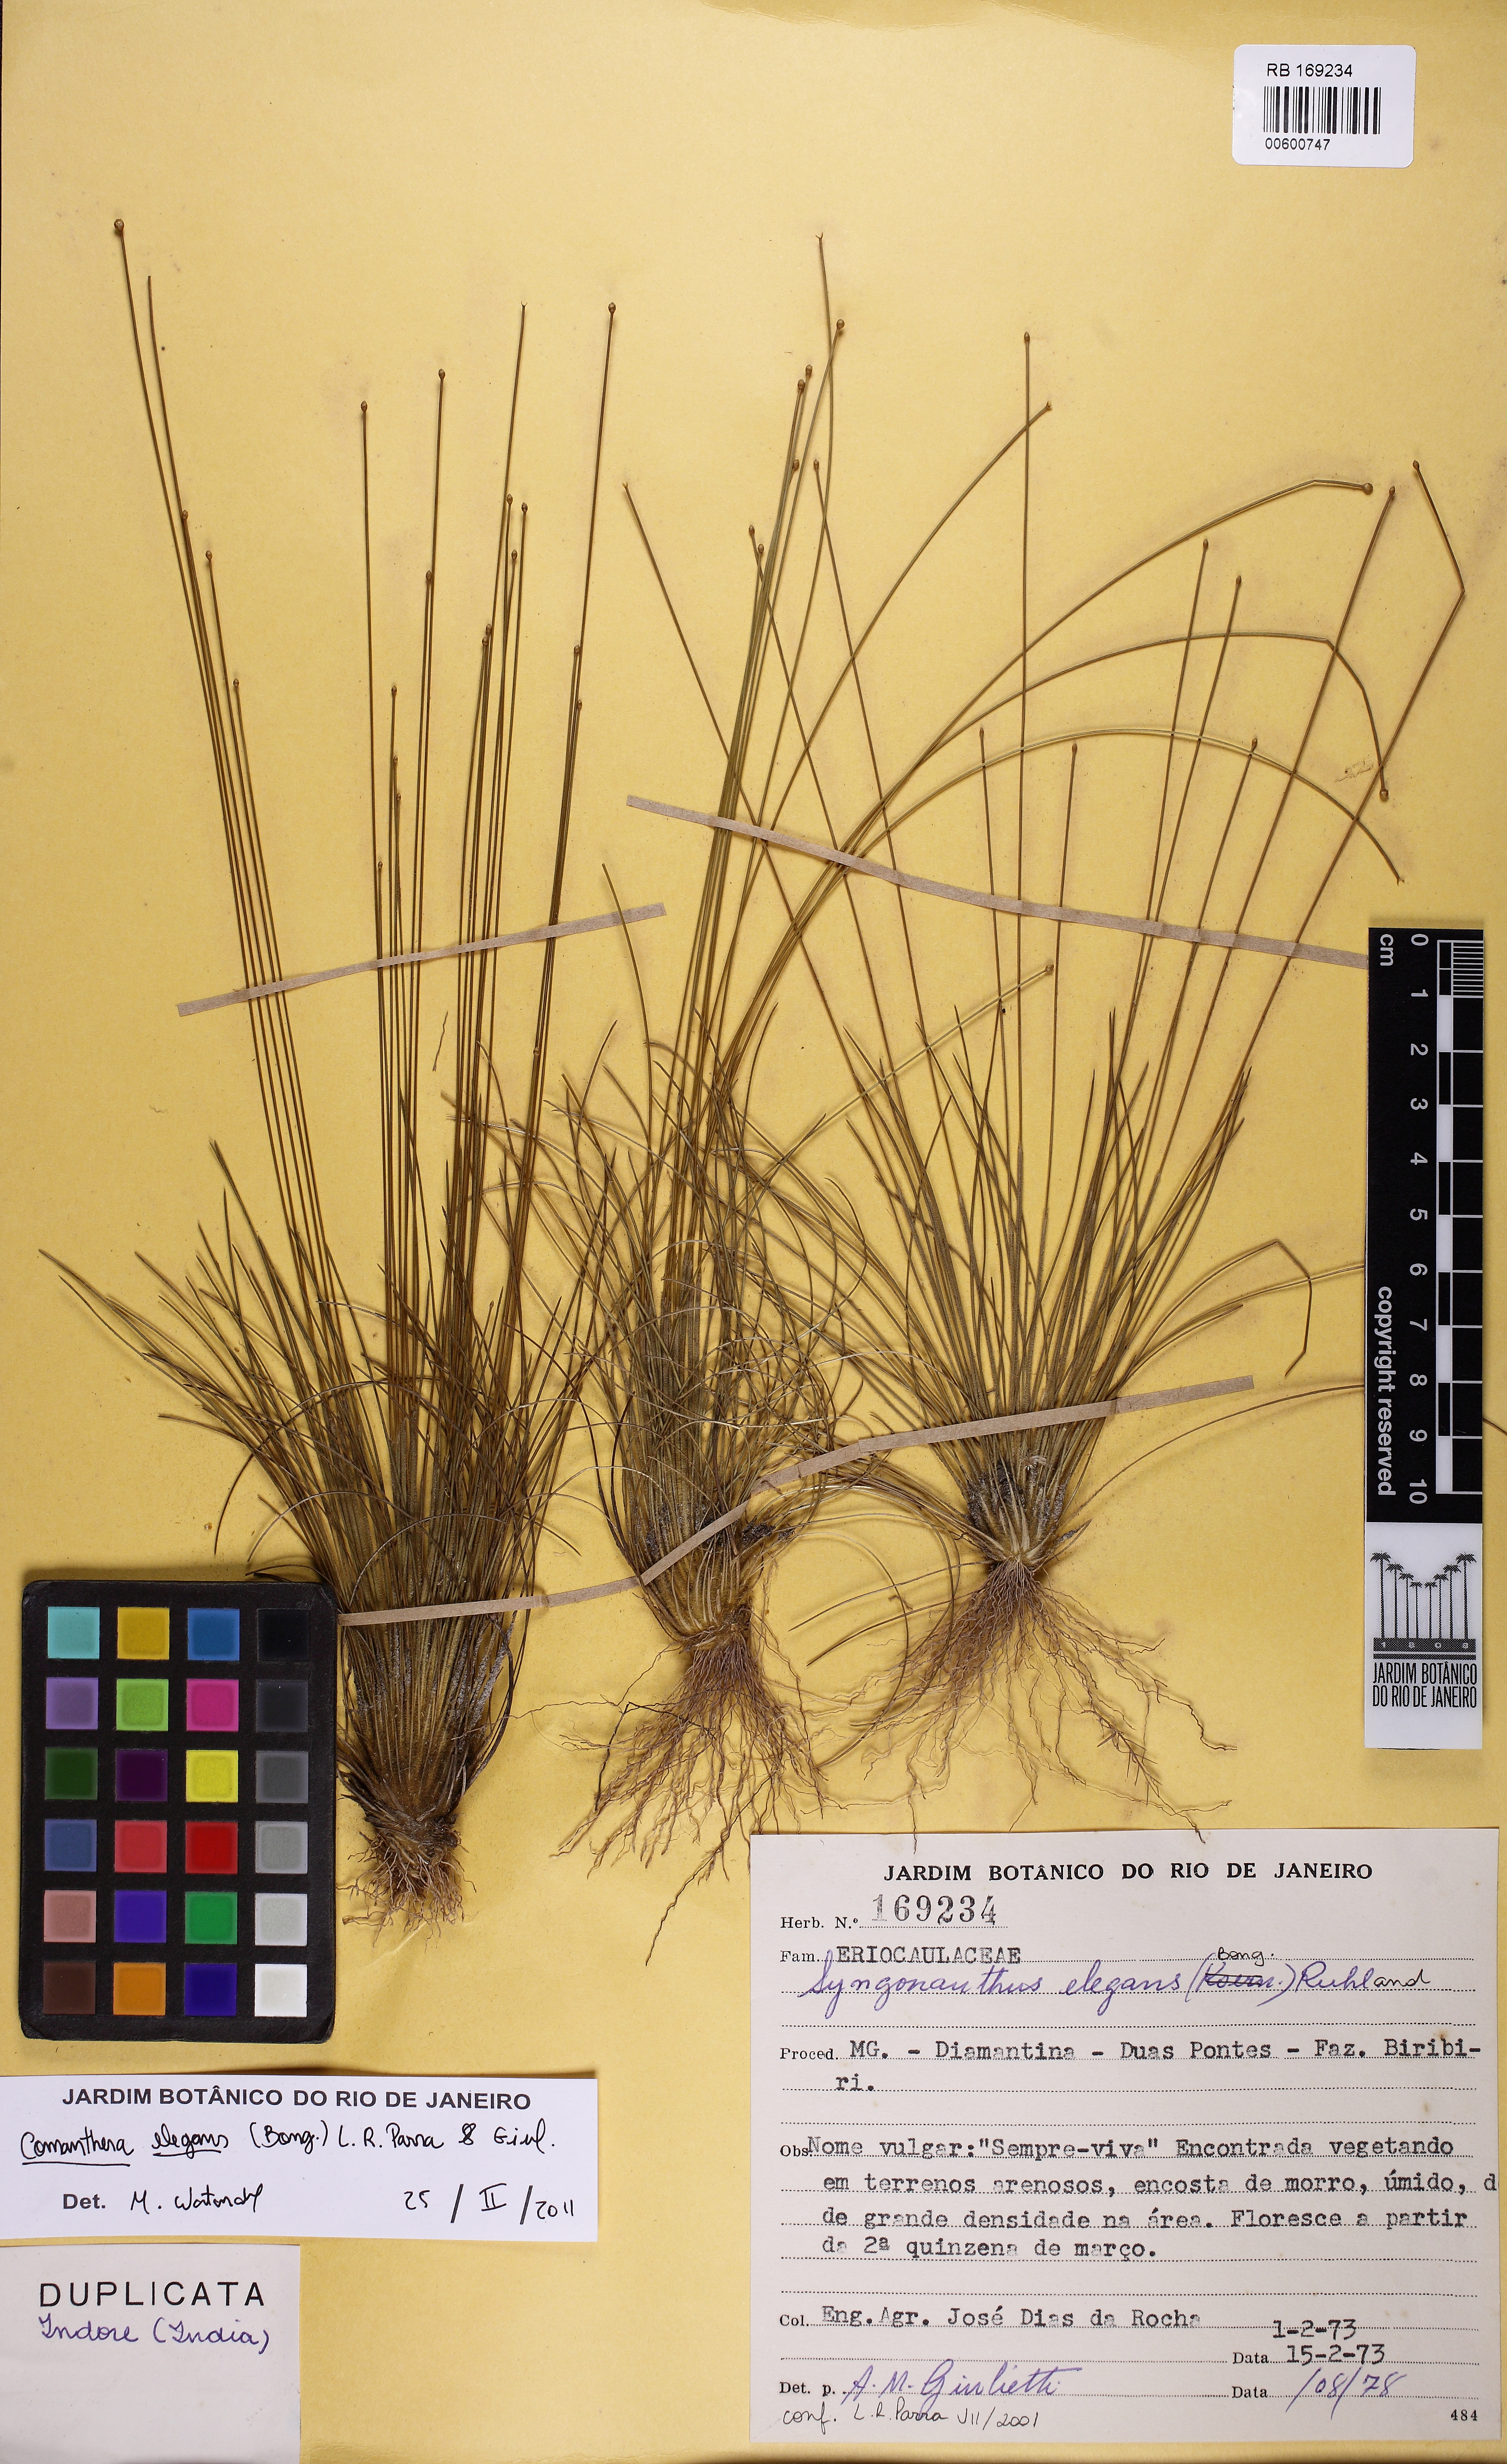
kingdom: Plantae
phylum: Tracheophyta
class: Liliopsida
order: Poales
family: Eriocaulaceae
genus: Comanthera
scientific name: Comanthera elegans
